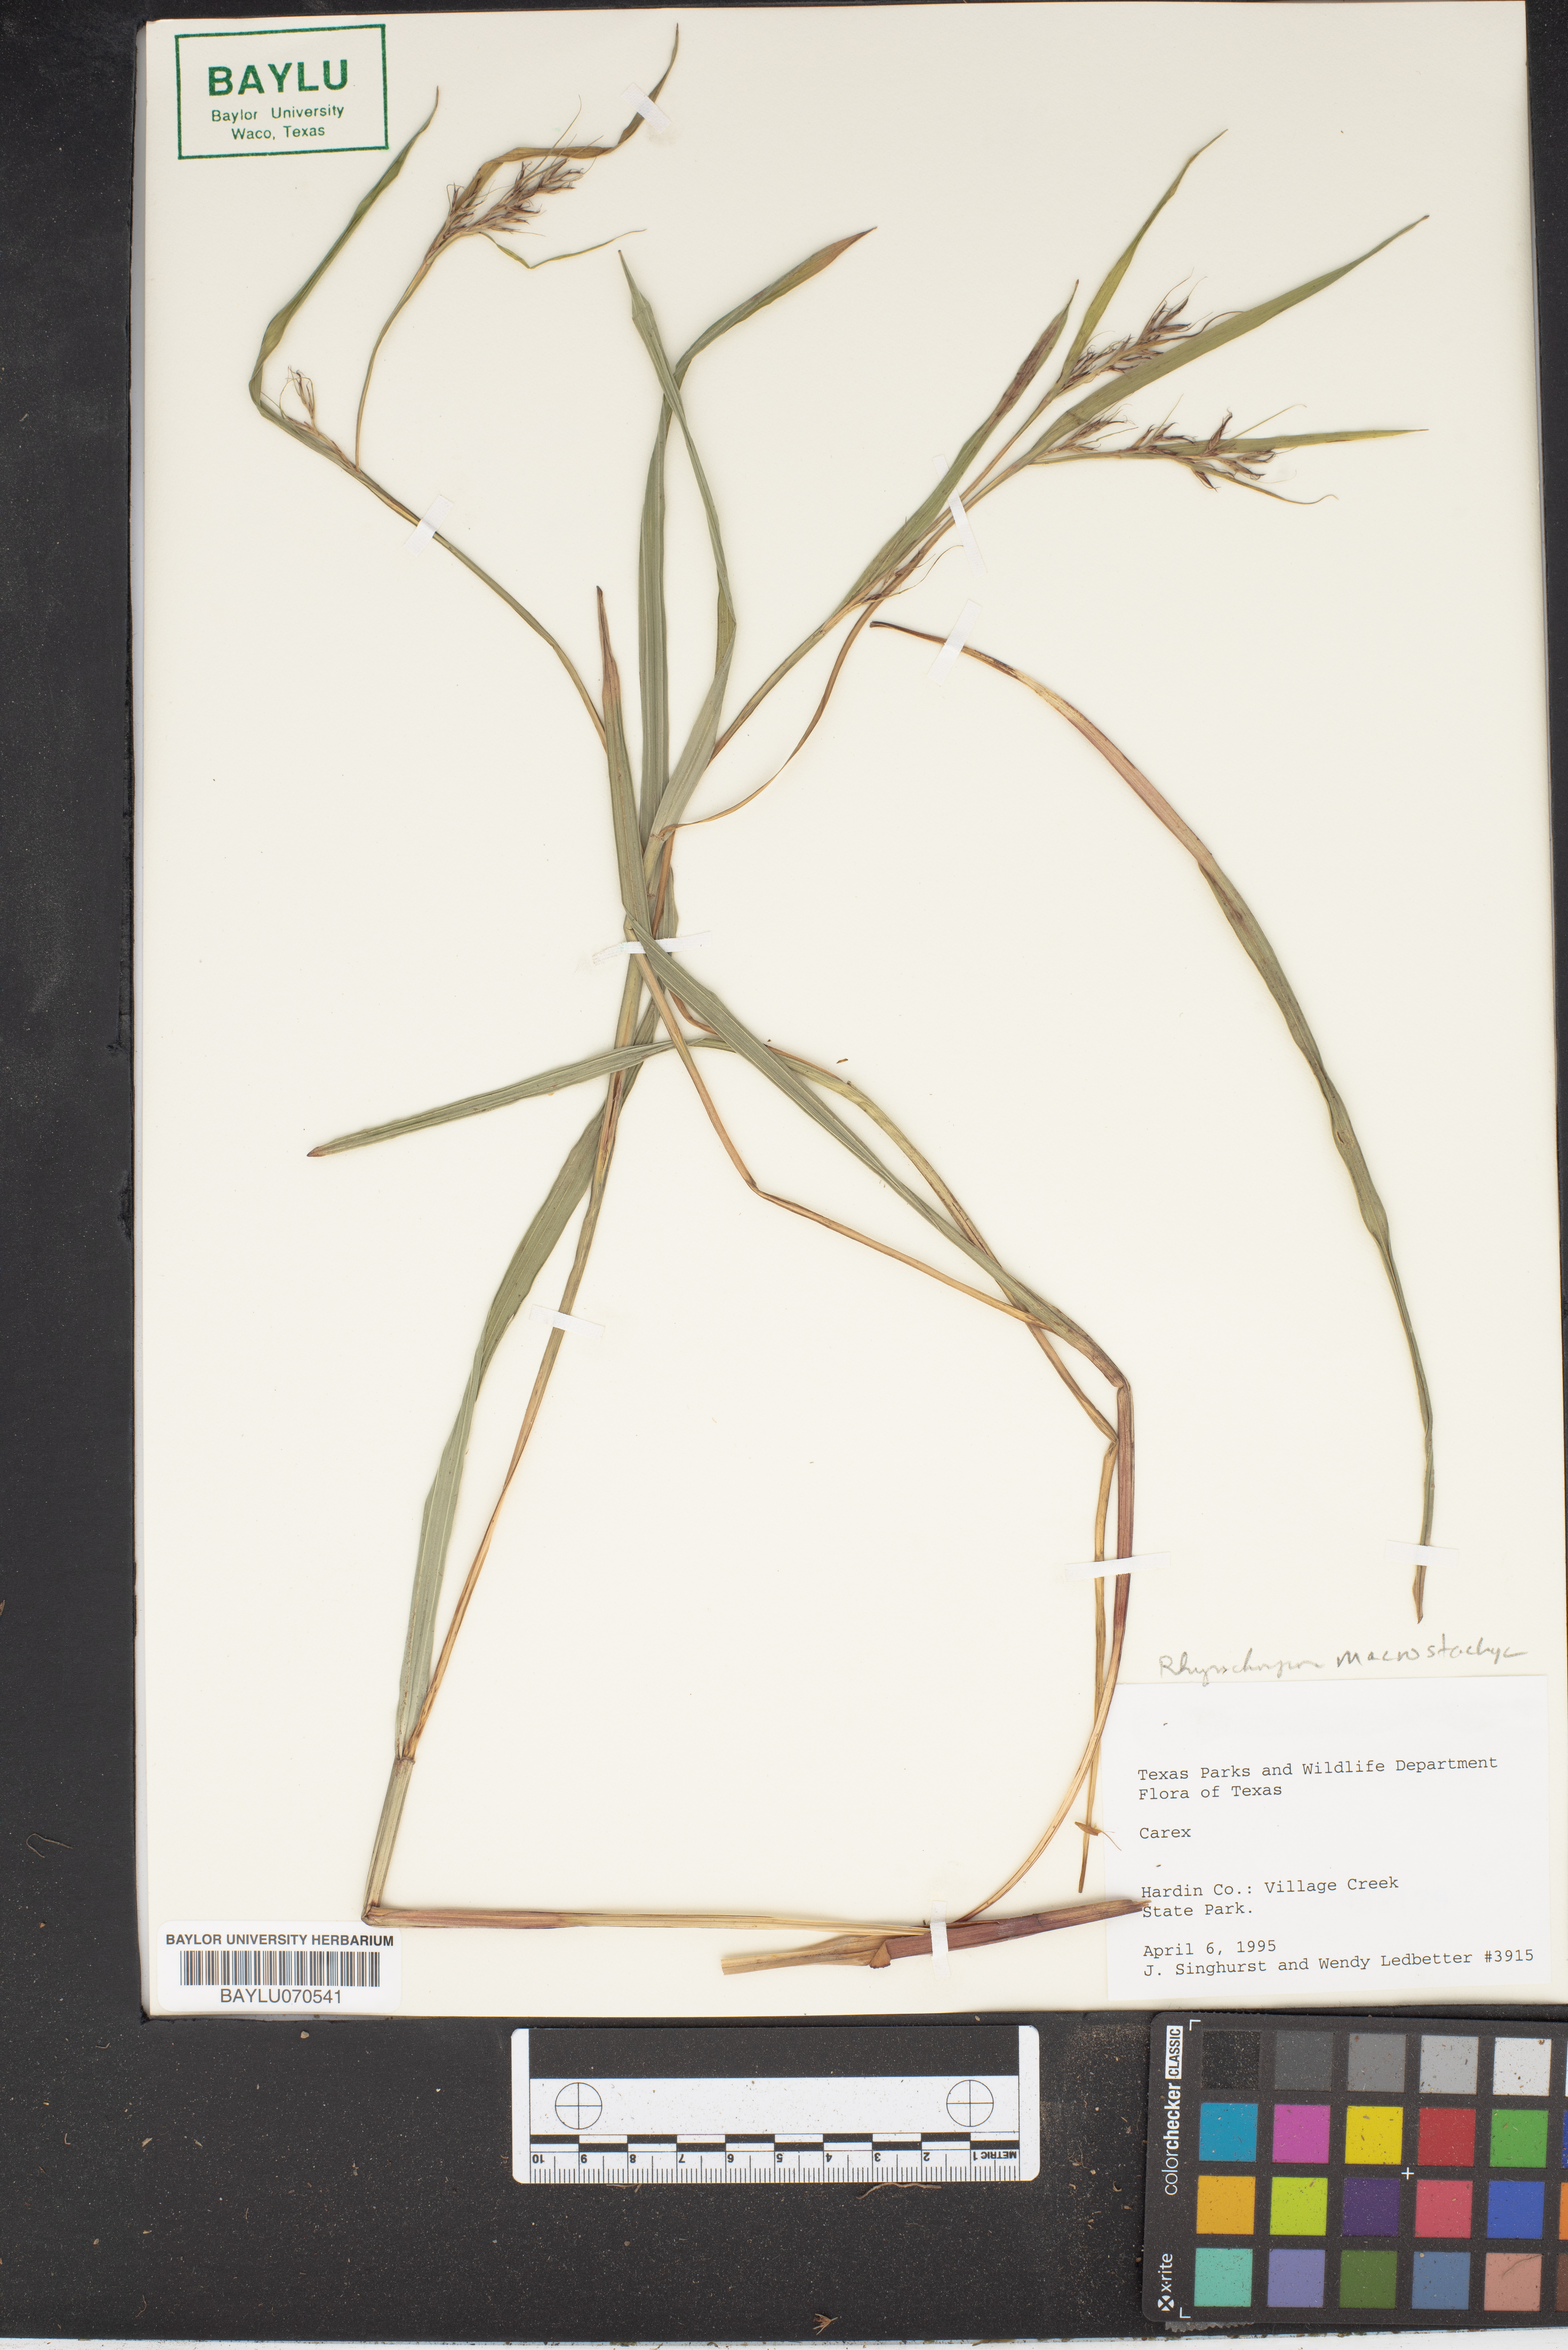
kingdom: Plantae
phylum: Tracheophyta
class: Liliopsida
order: Poales
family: Cyperaceae
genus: Carex
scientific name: Carex
